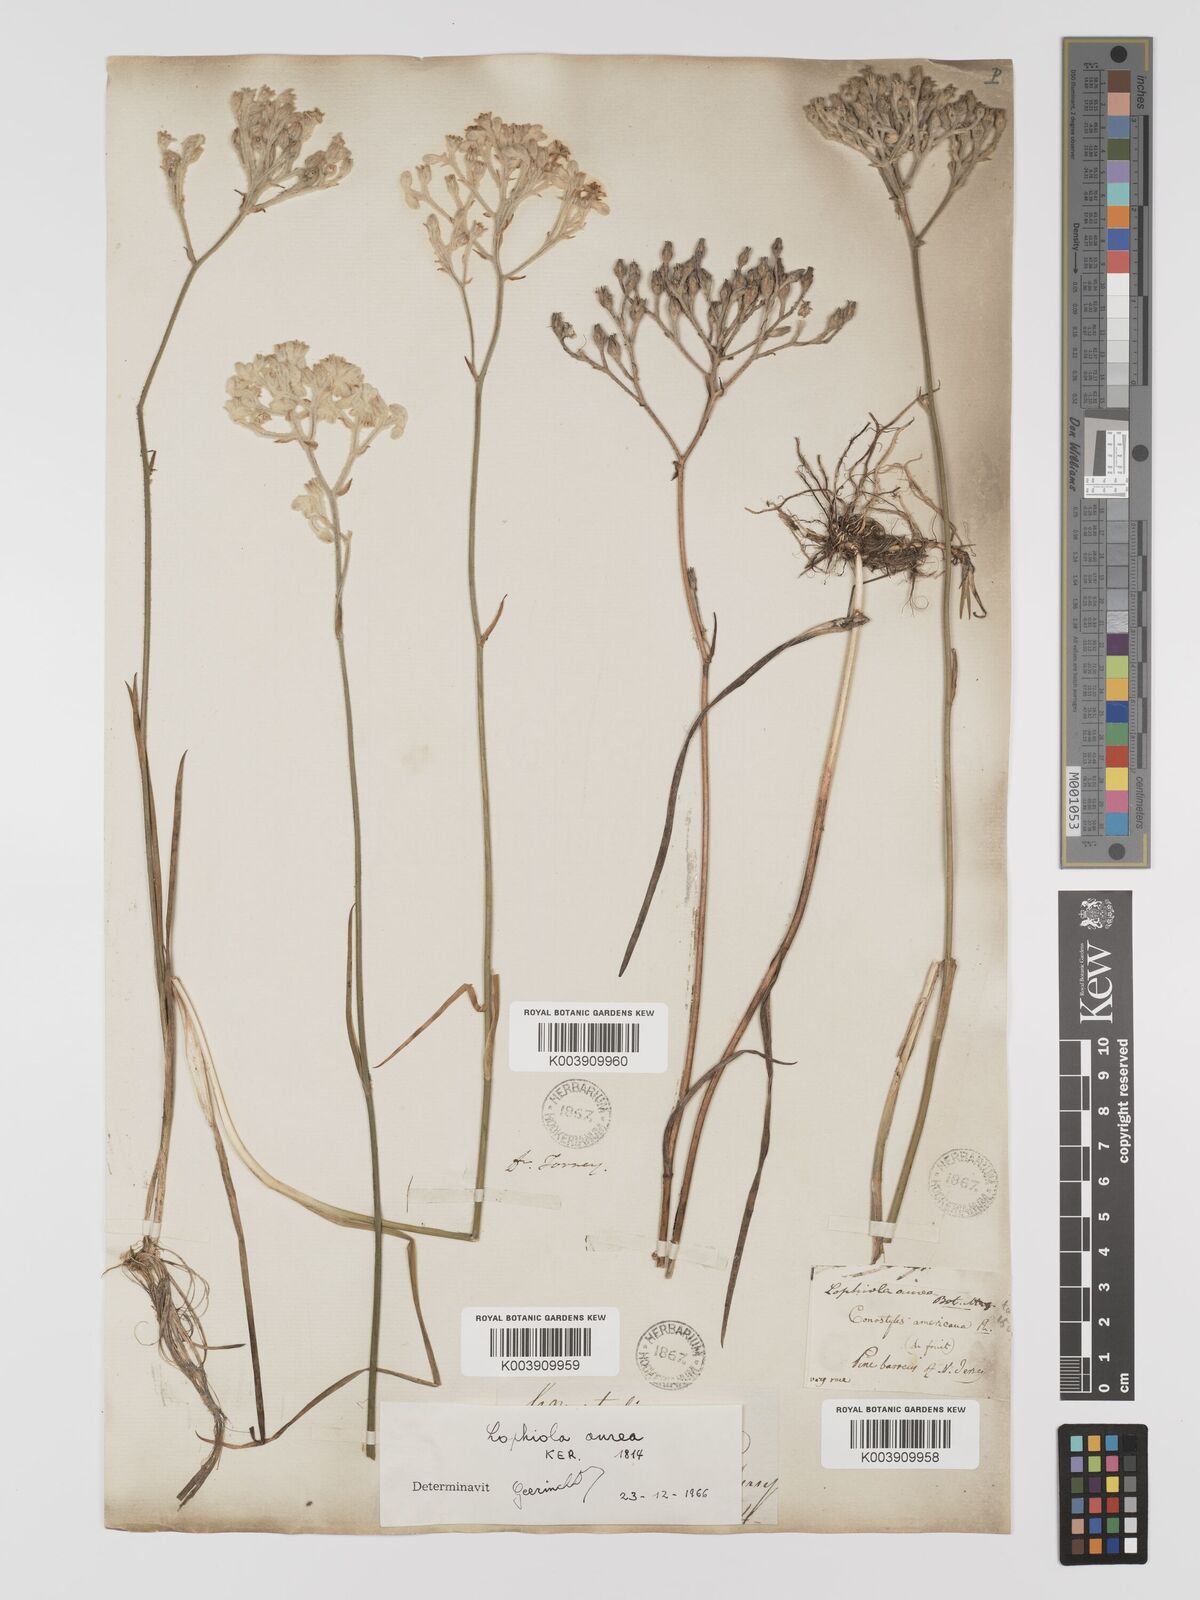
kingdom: Plantae
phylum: Tracheophyta
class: Liliopsida
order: Dioscoreales
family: Nartheciaceae
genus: Lophiola
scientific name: Lophiola aurea
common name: Golden-crest
